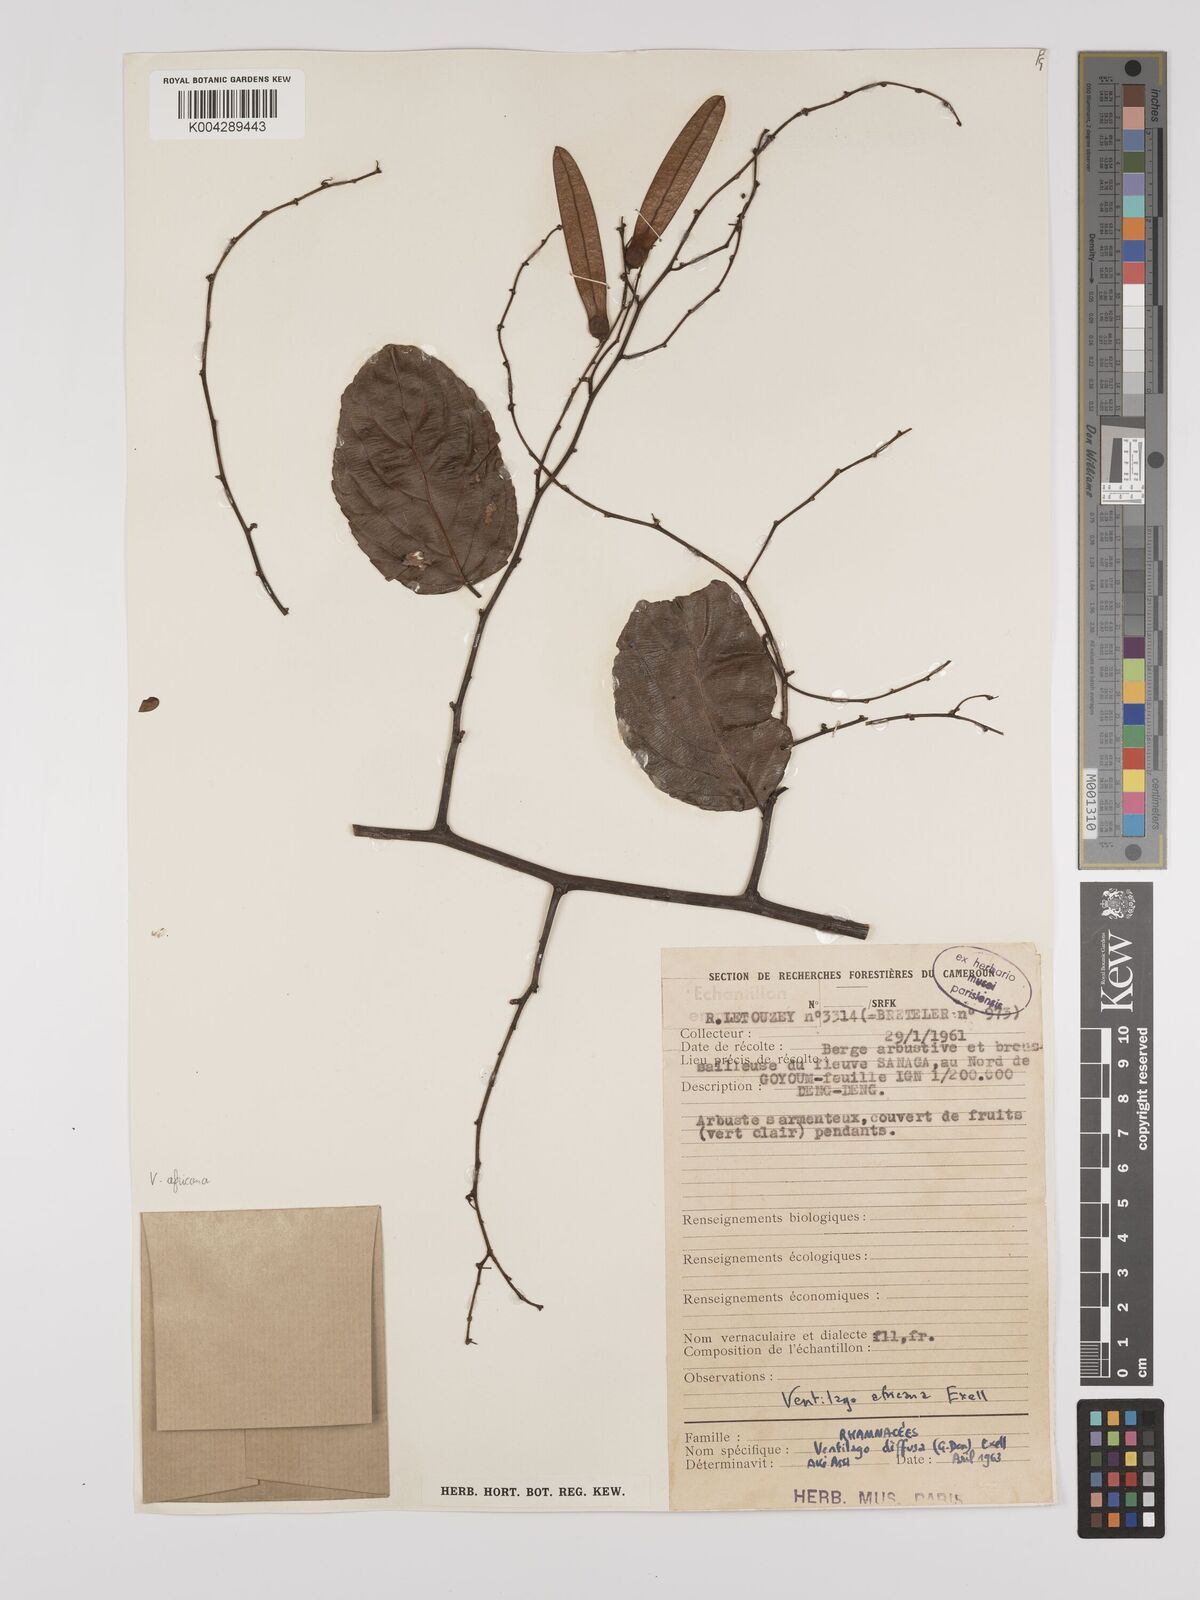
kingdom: Plantae
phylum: Tracheophyta
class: Magnoliopsida
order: Rosales
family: Rhamnaceae
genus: Ventilago
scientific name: Ventilago africana
